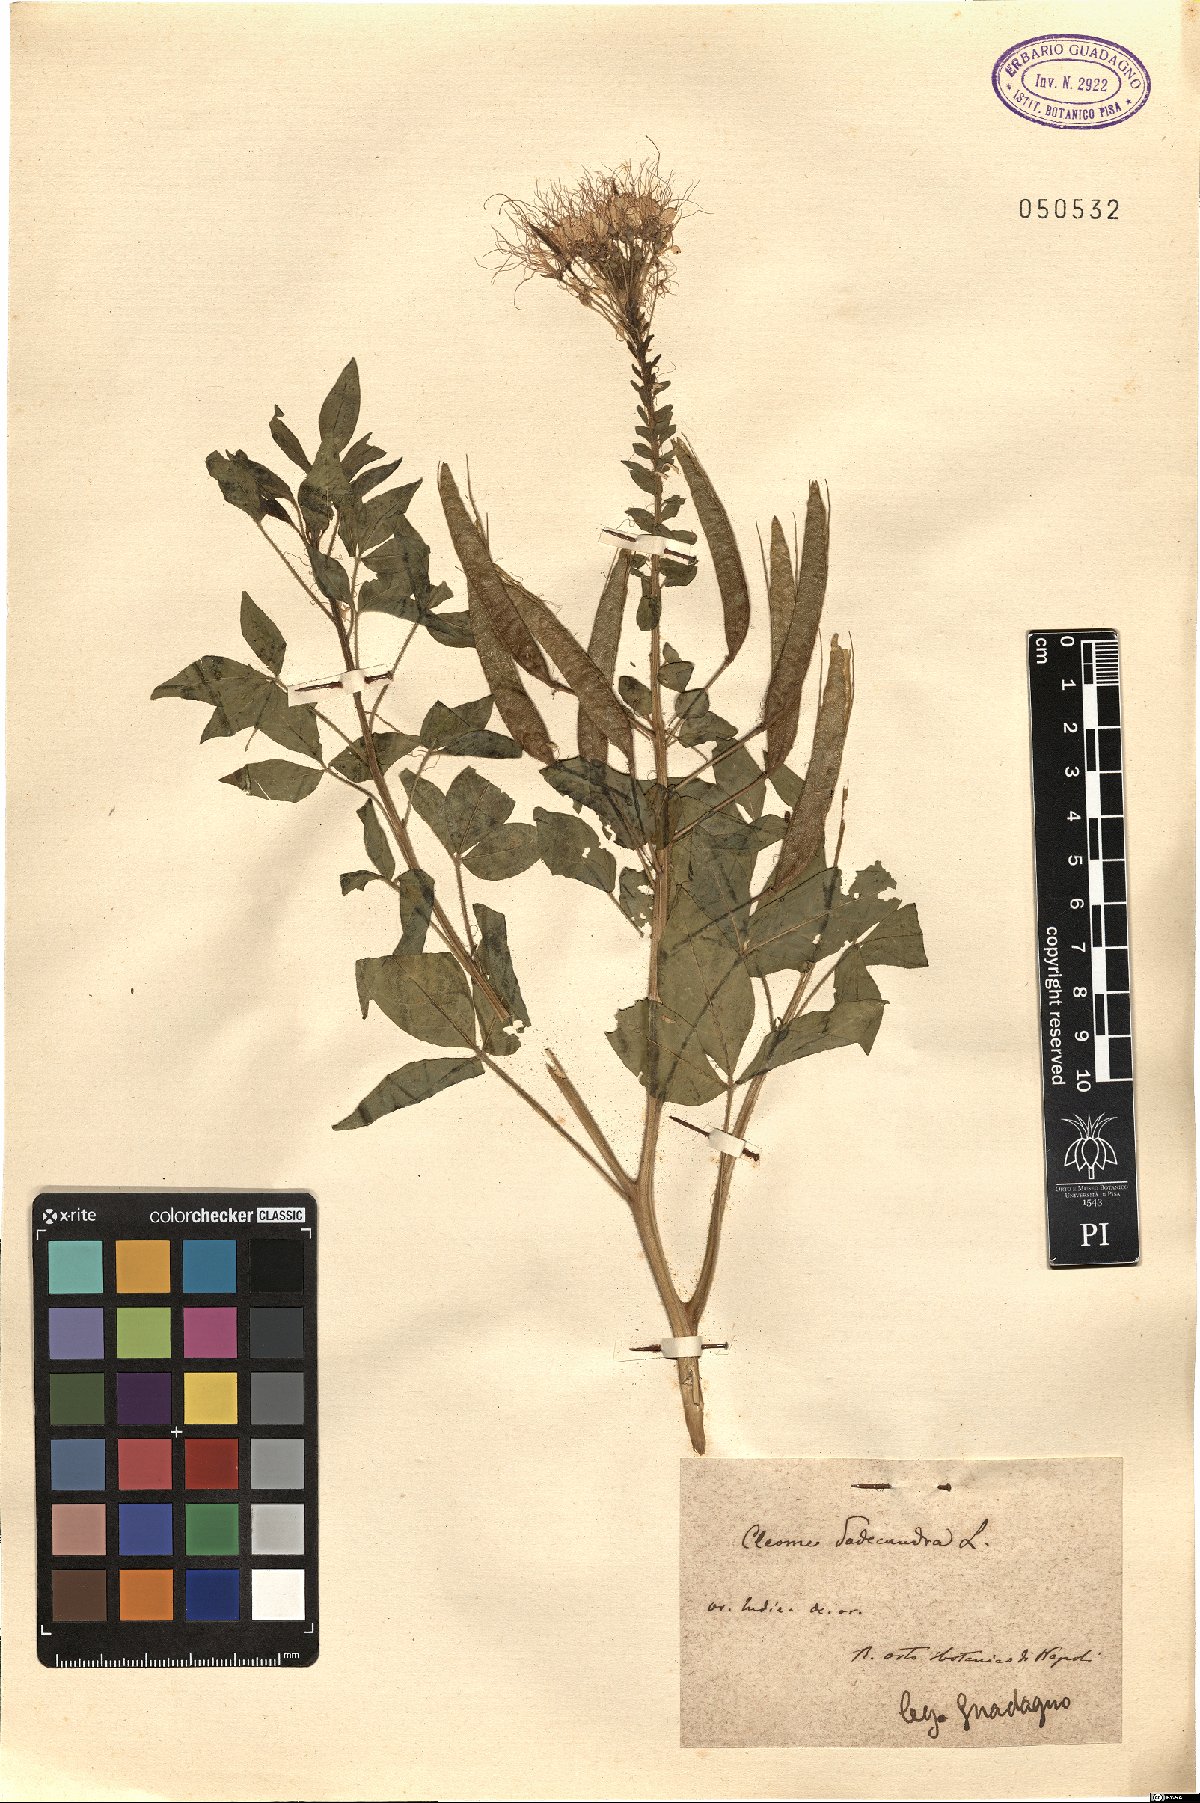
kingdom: Plantae
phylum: Tracheophyta
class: Magnoliopsida
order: Brassicales
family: Cleomaceae
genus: Polanisia
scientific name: Polanisia dodecandra
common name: Clammyweed
